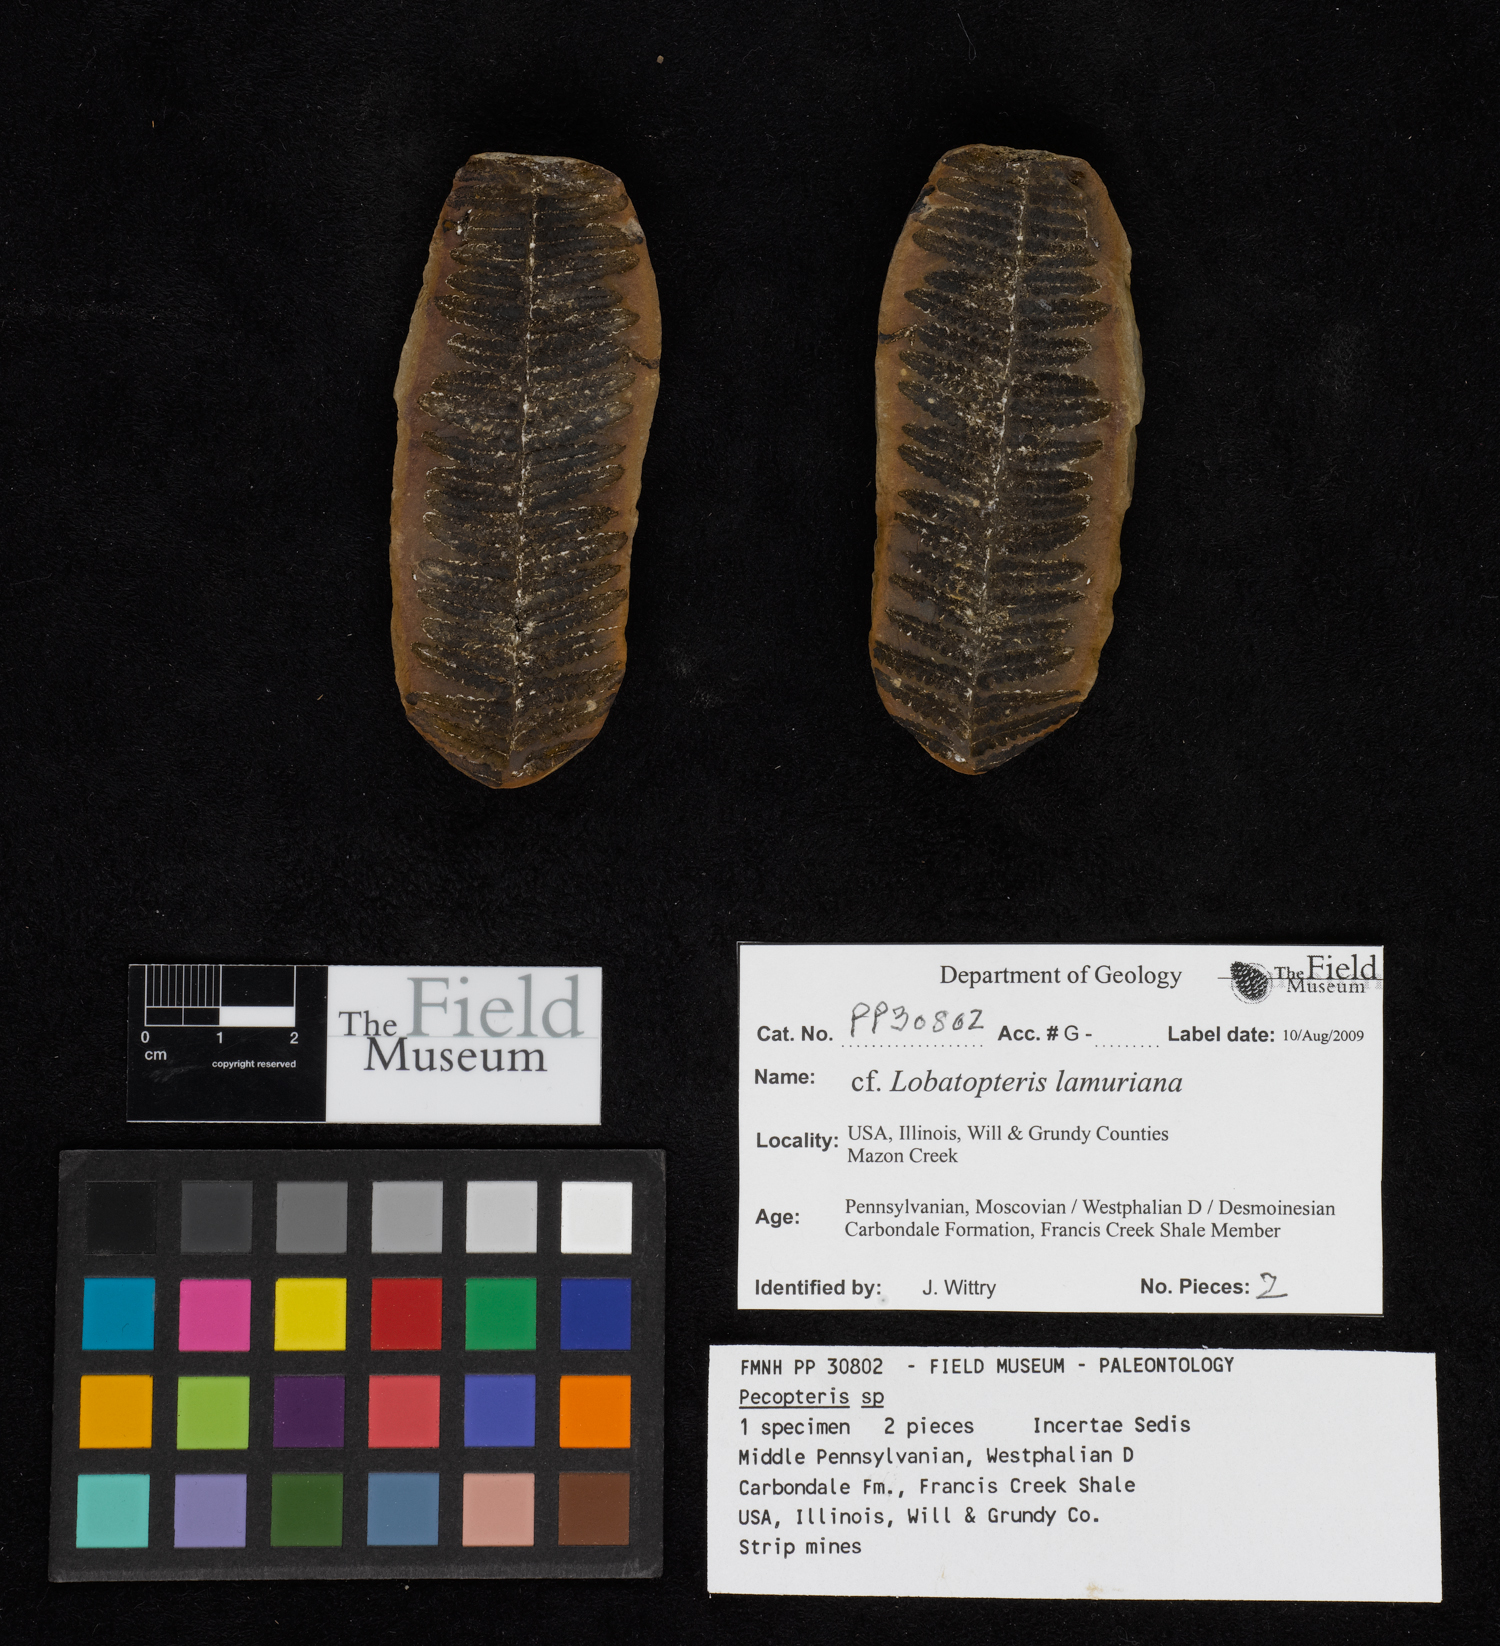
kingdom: Plantae
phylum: Tracheophyta
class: Polypodiopsida
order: Marattiales
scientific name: Marattiales
